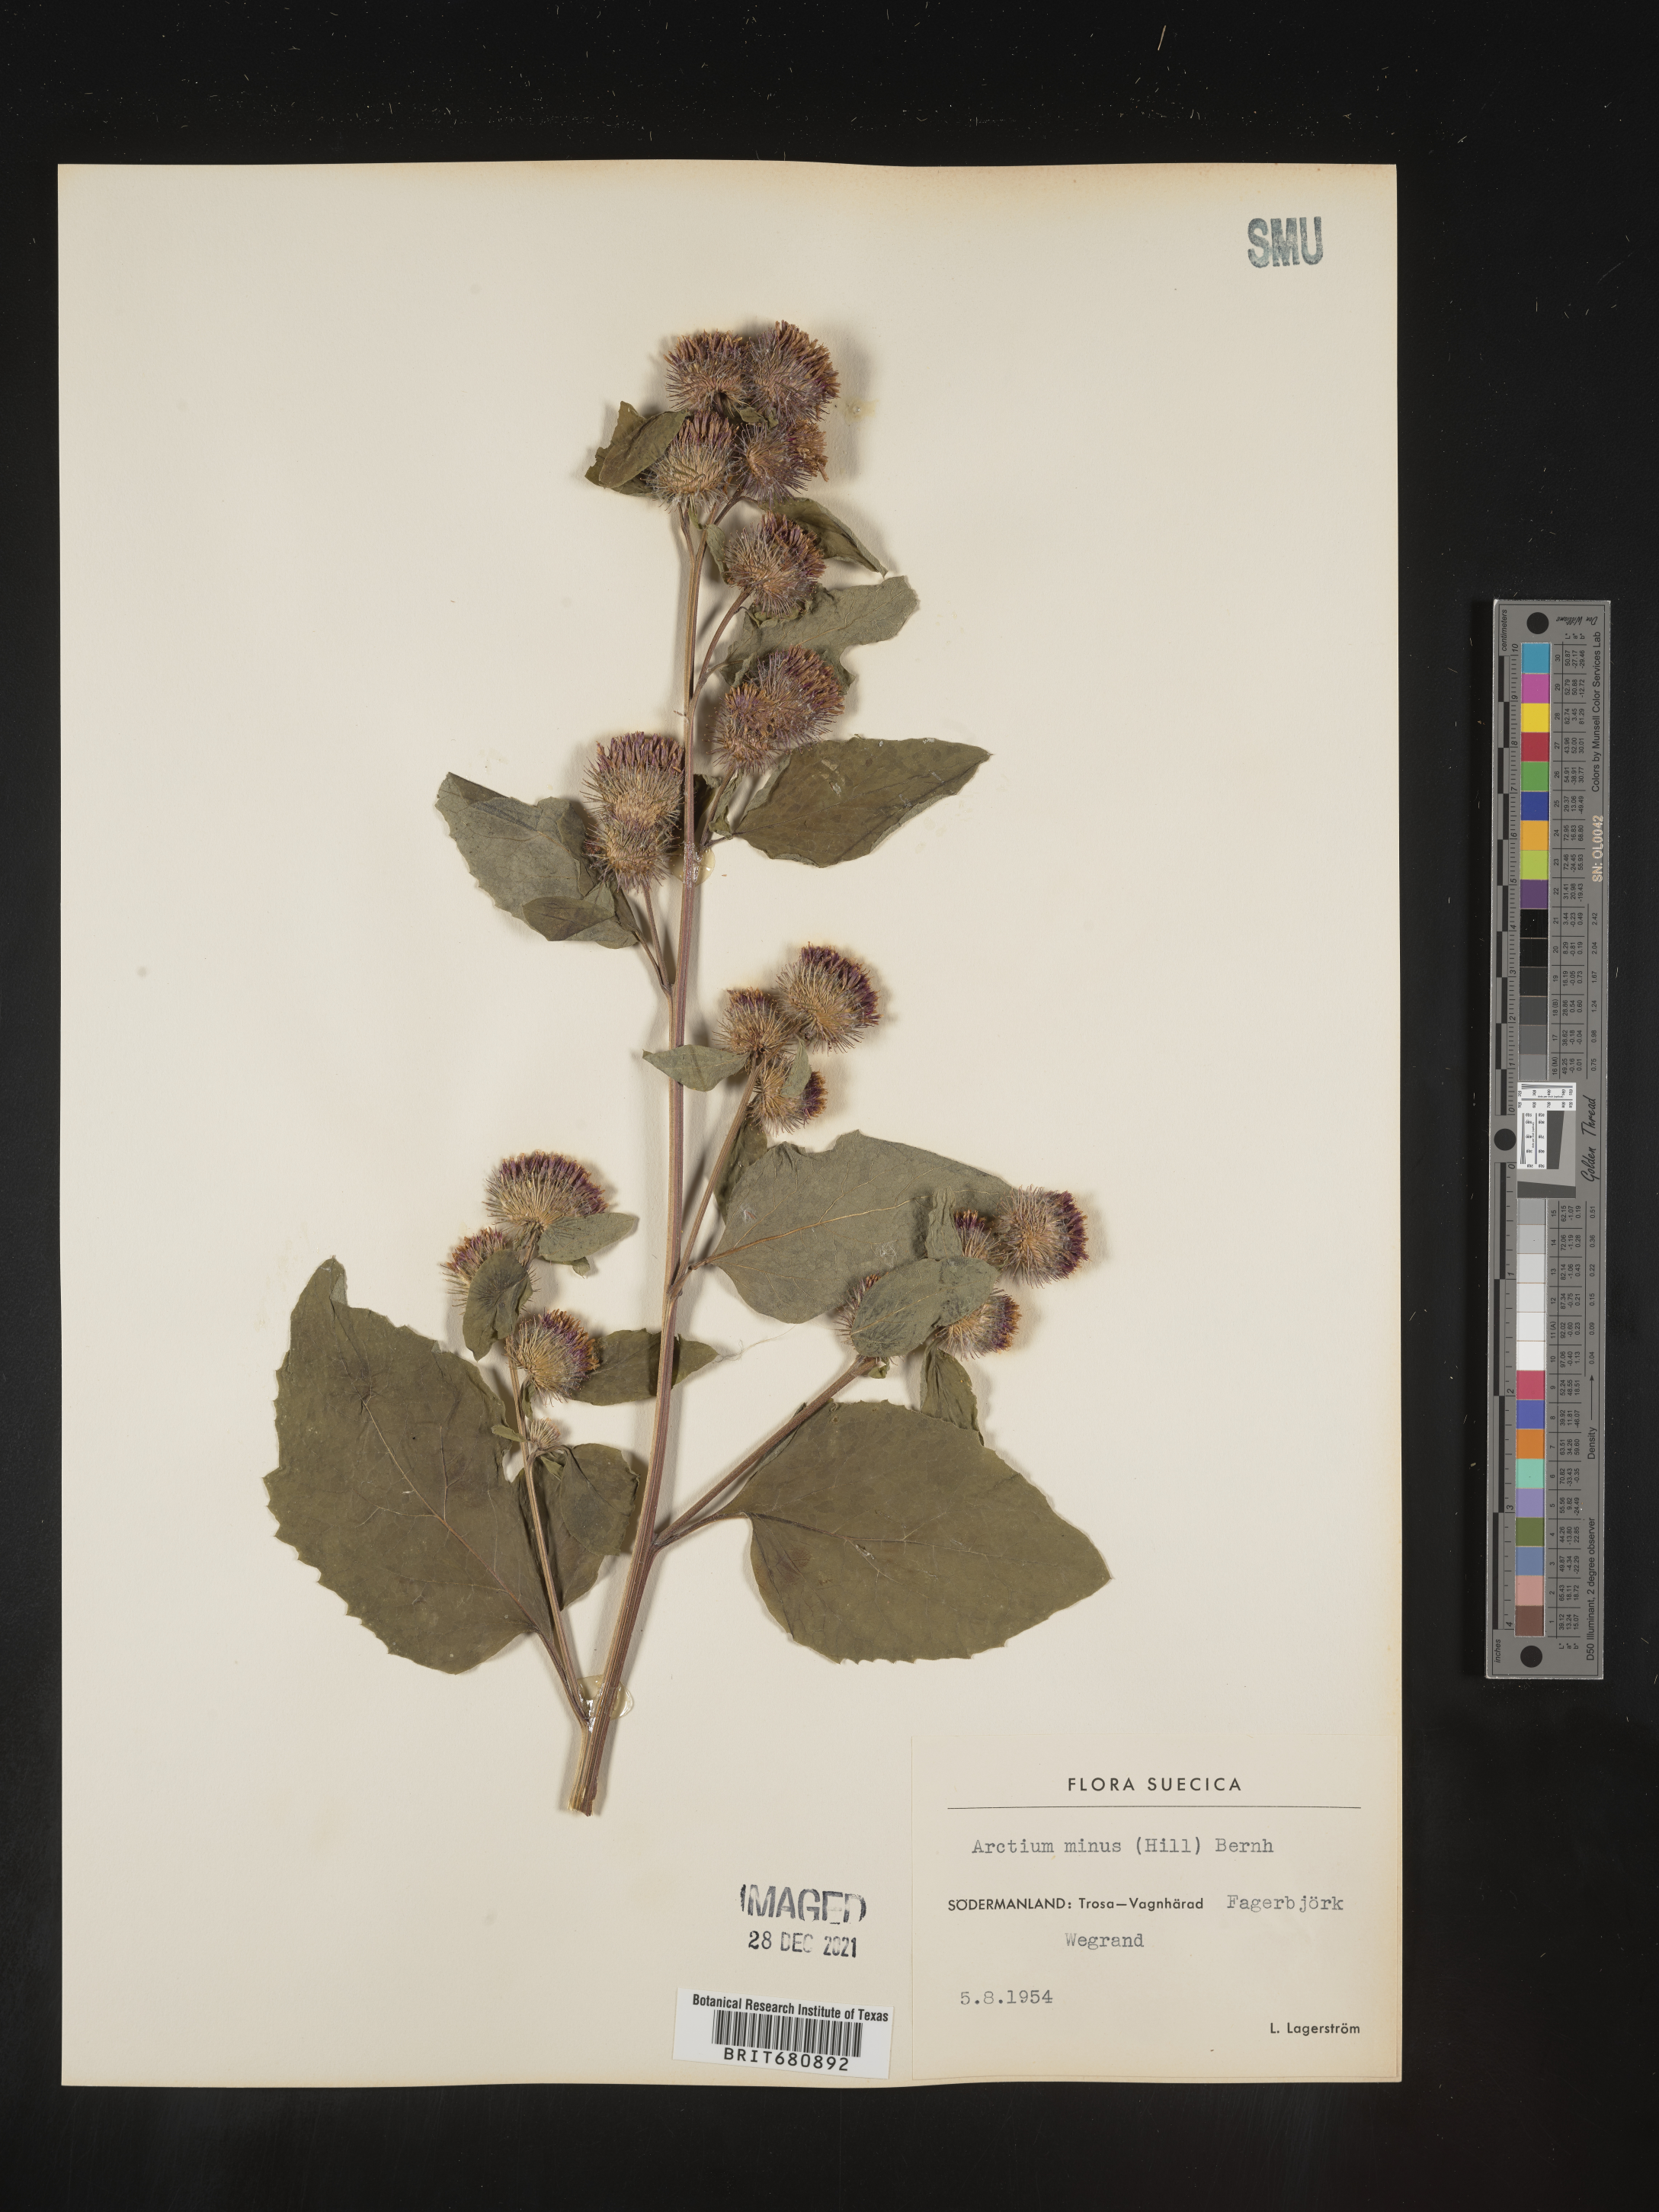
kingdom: Plantae
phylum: Tracheophyta
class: Magnoliopsida
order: Asterales
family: Asteraceae
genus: Arctium
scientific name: Arctium
